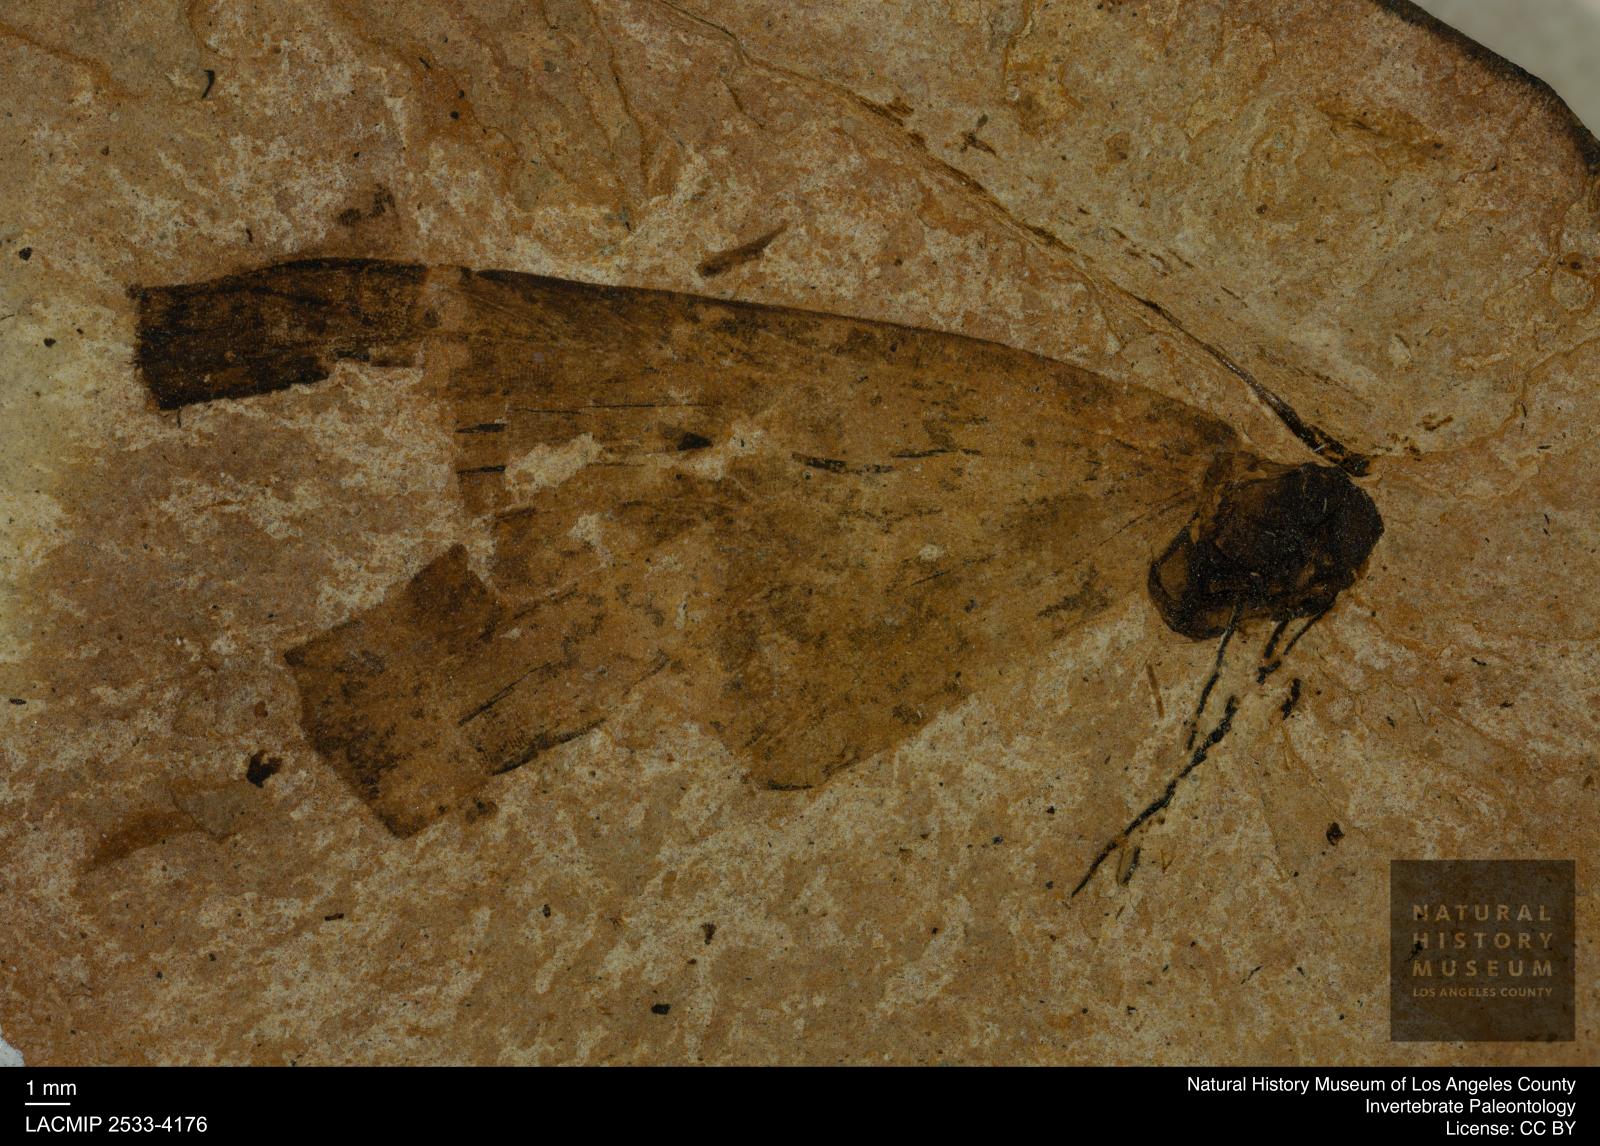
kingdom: Animalia
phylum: Arthropoda
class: Insecta
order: Lepidoptera
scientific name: Lepidoptera
